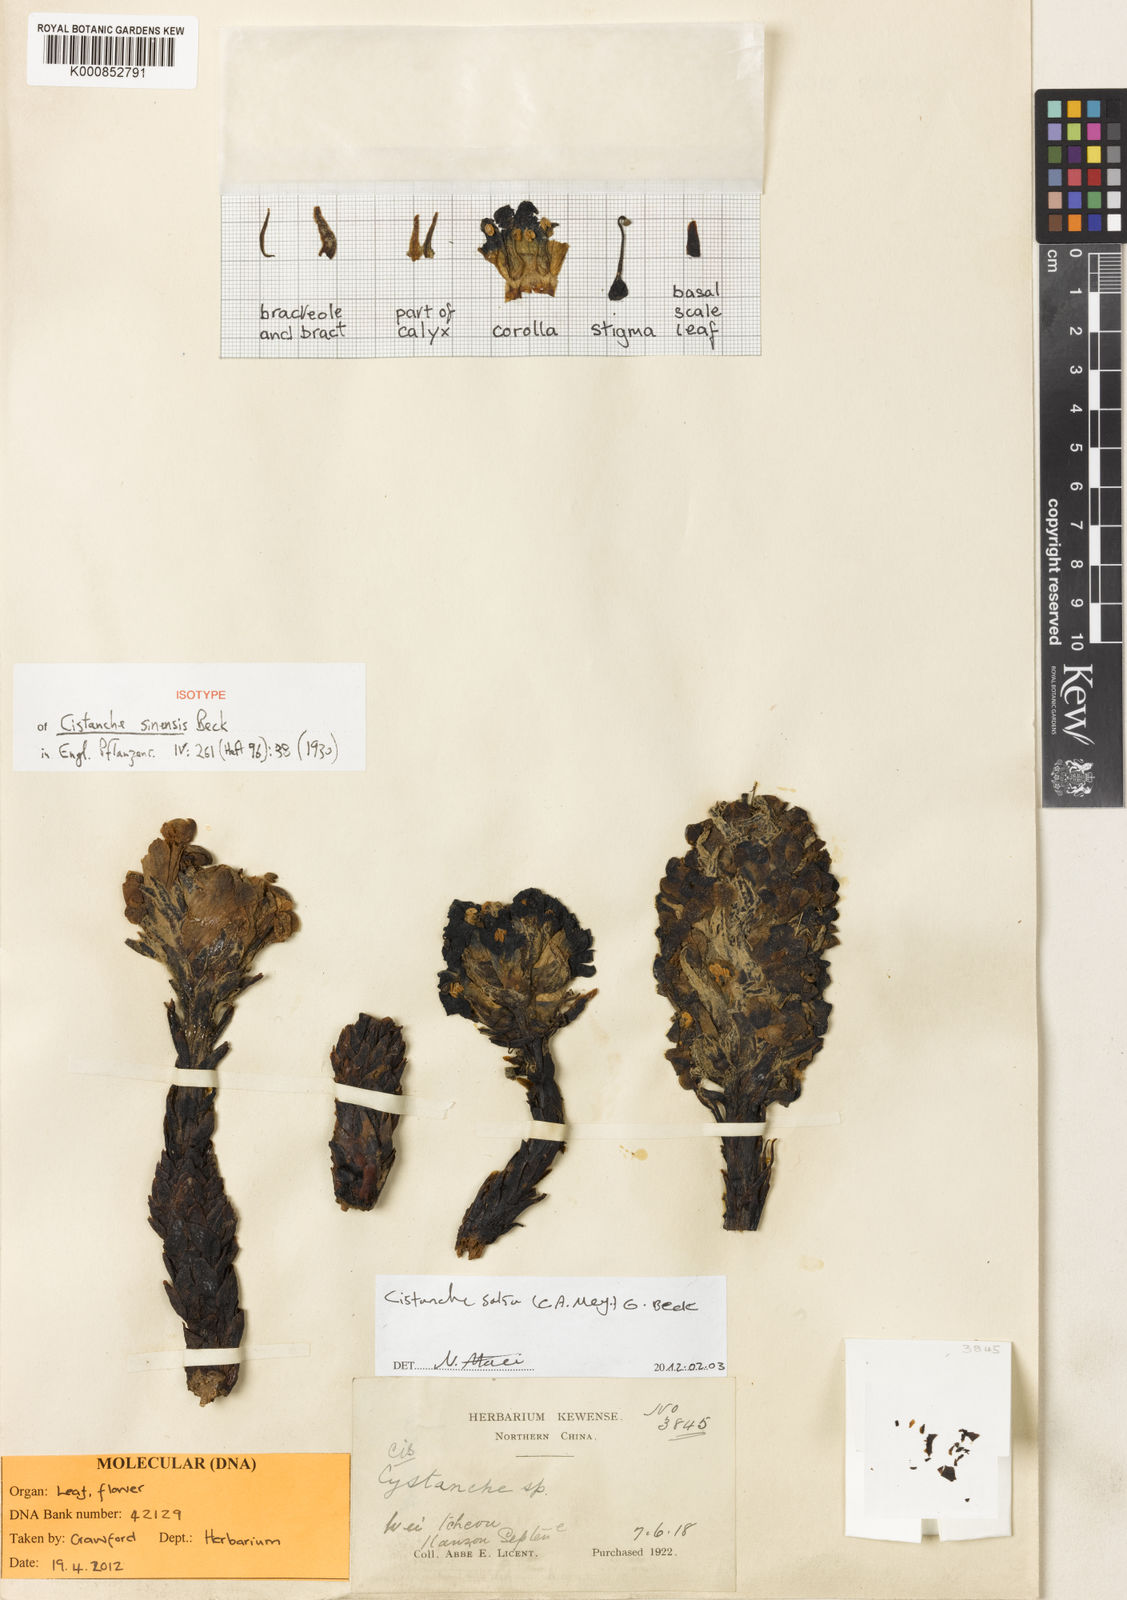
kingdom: Plantae
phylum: Tracheophyta
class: Magnoliopsida
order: Lamiales
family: Orobanchaceae
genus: Cistanche
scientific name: Cistanche sinensis
